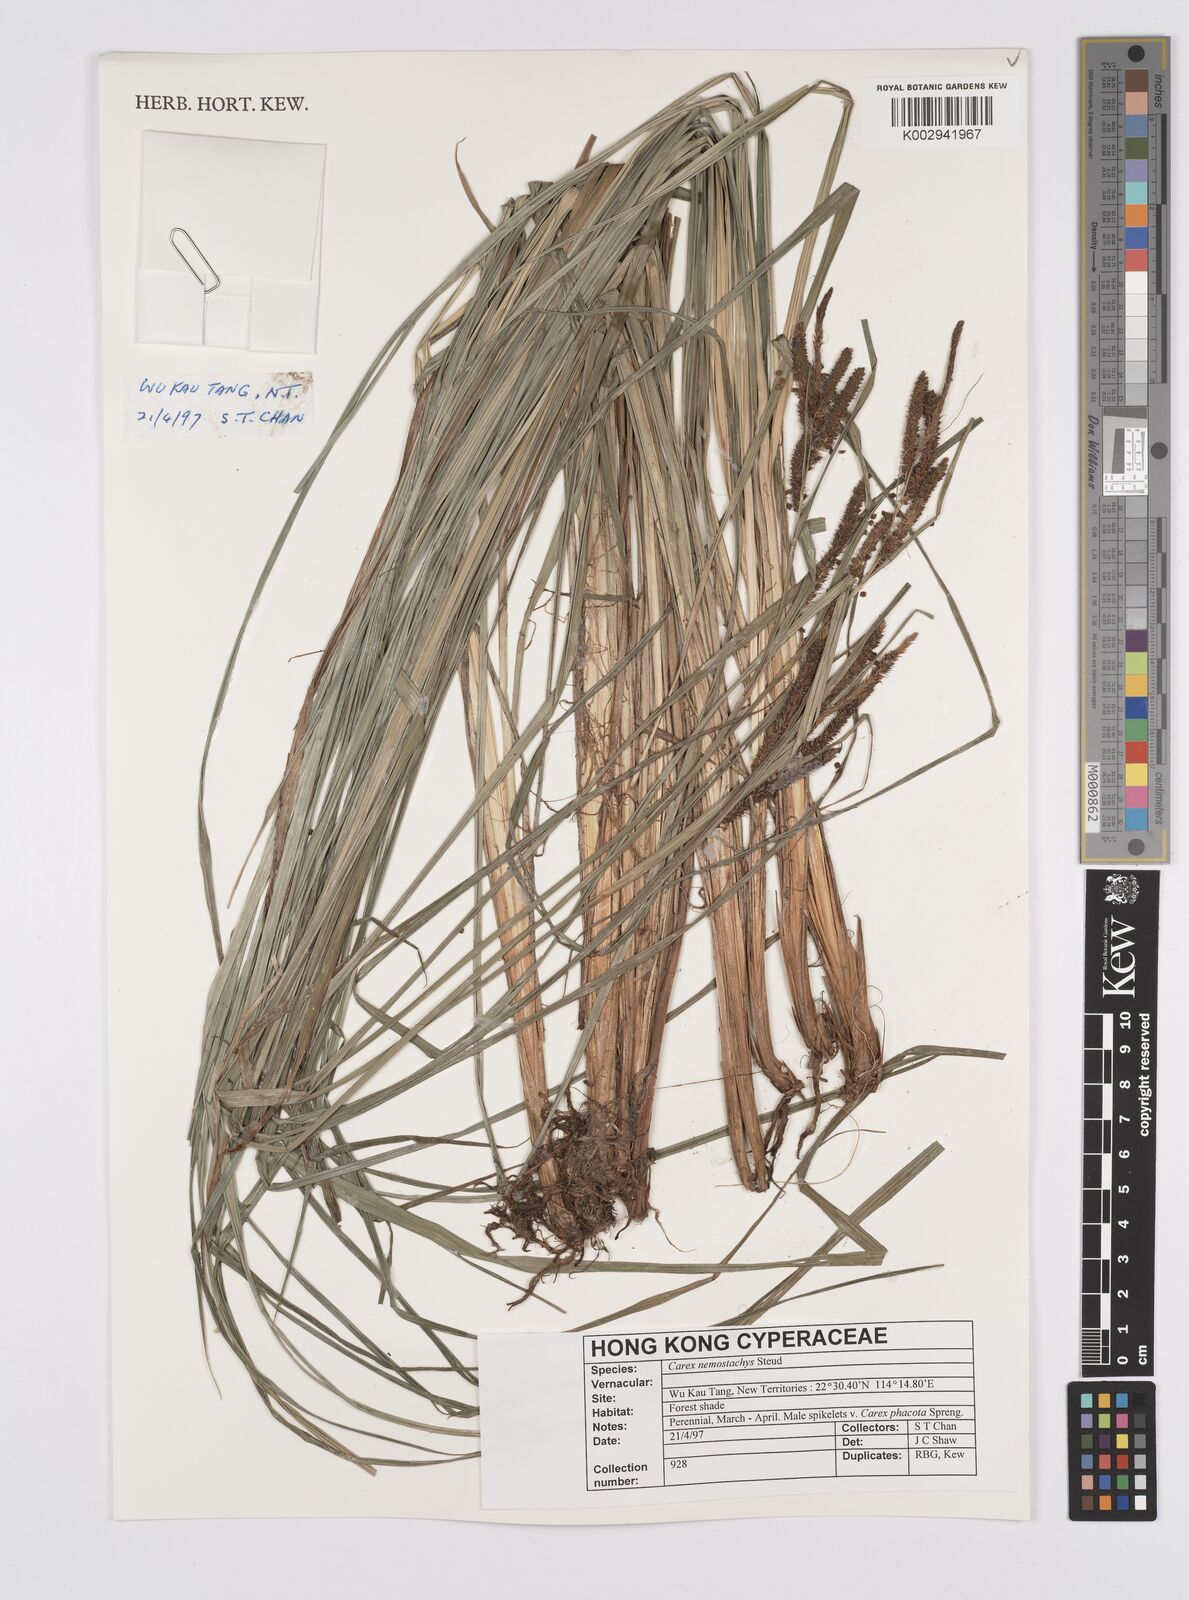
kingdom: Plantae
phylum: Tracheophyta
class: Liliopsida
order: Poales
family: Cyperaceae
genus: Carex
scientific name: Carex nemostachys
